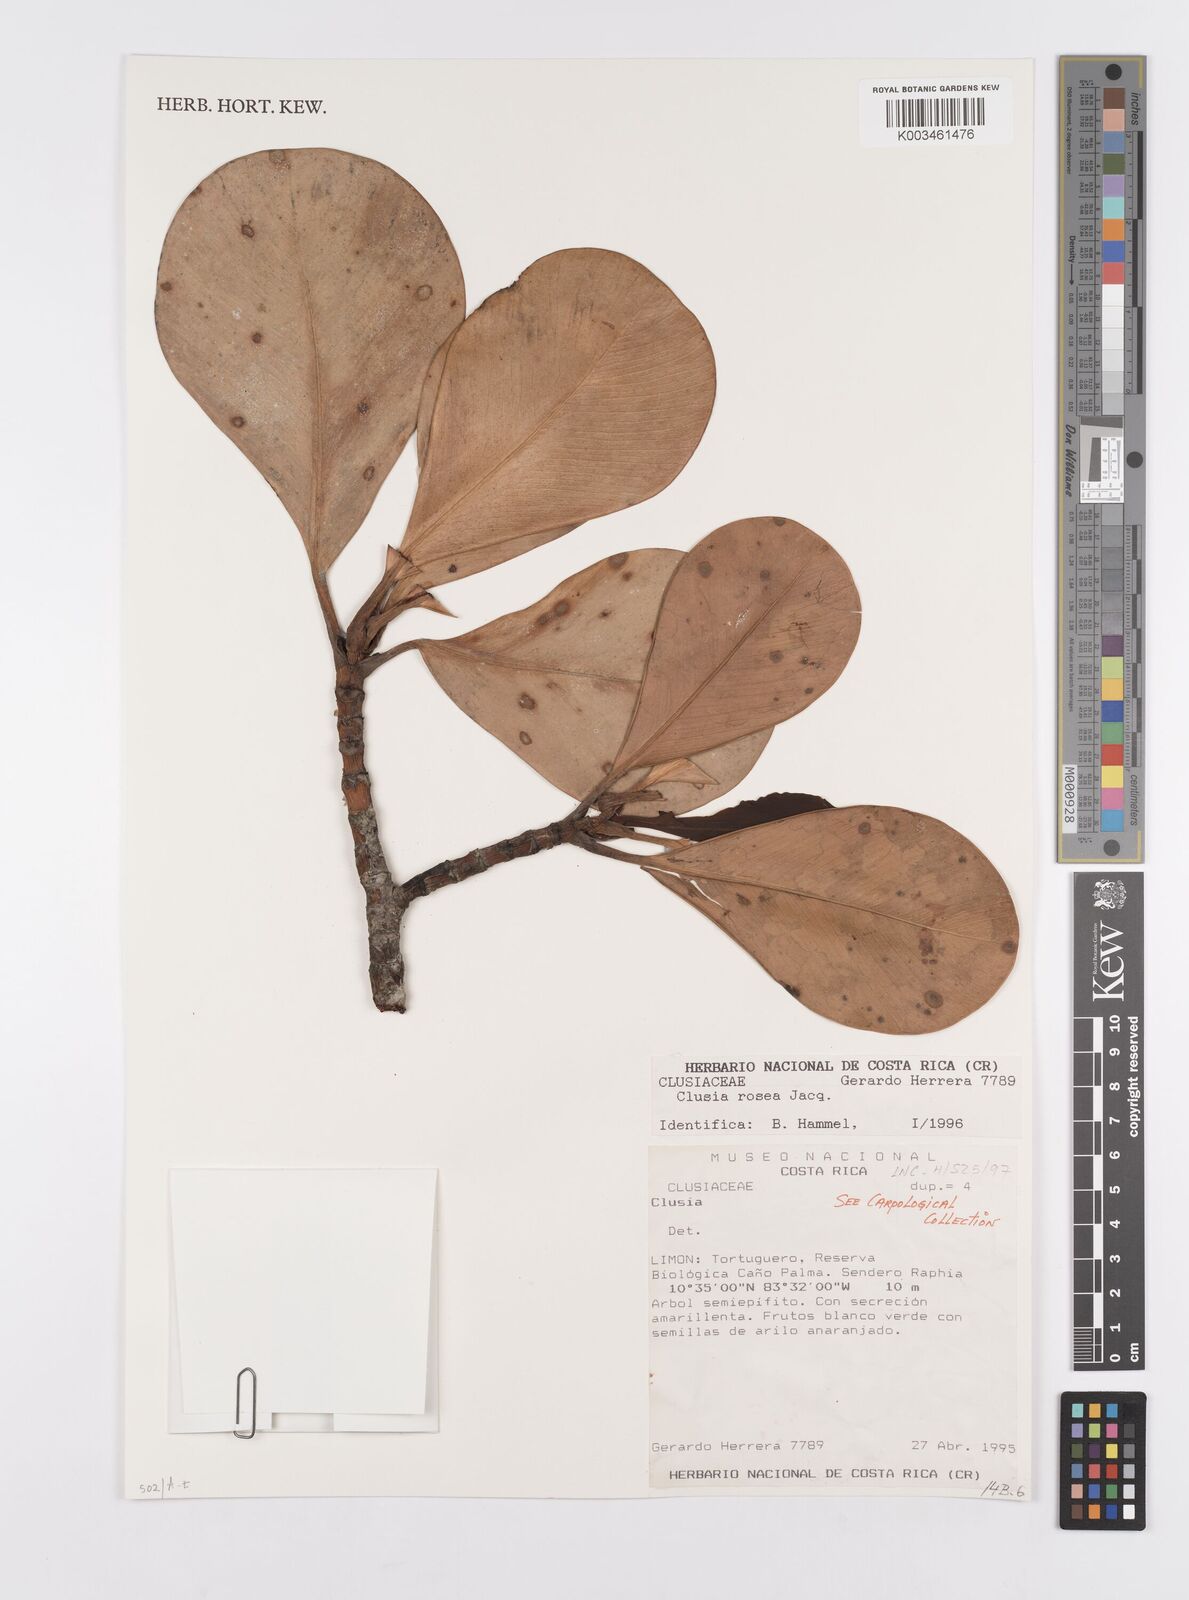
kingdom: Plantae
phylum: Tracheophyta
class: Magnoliopsida
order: Malpighiales
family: Clusiaceae
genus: Clusia
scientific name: Clusia rosea
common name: Scotch attorney
